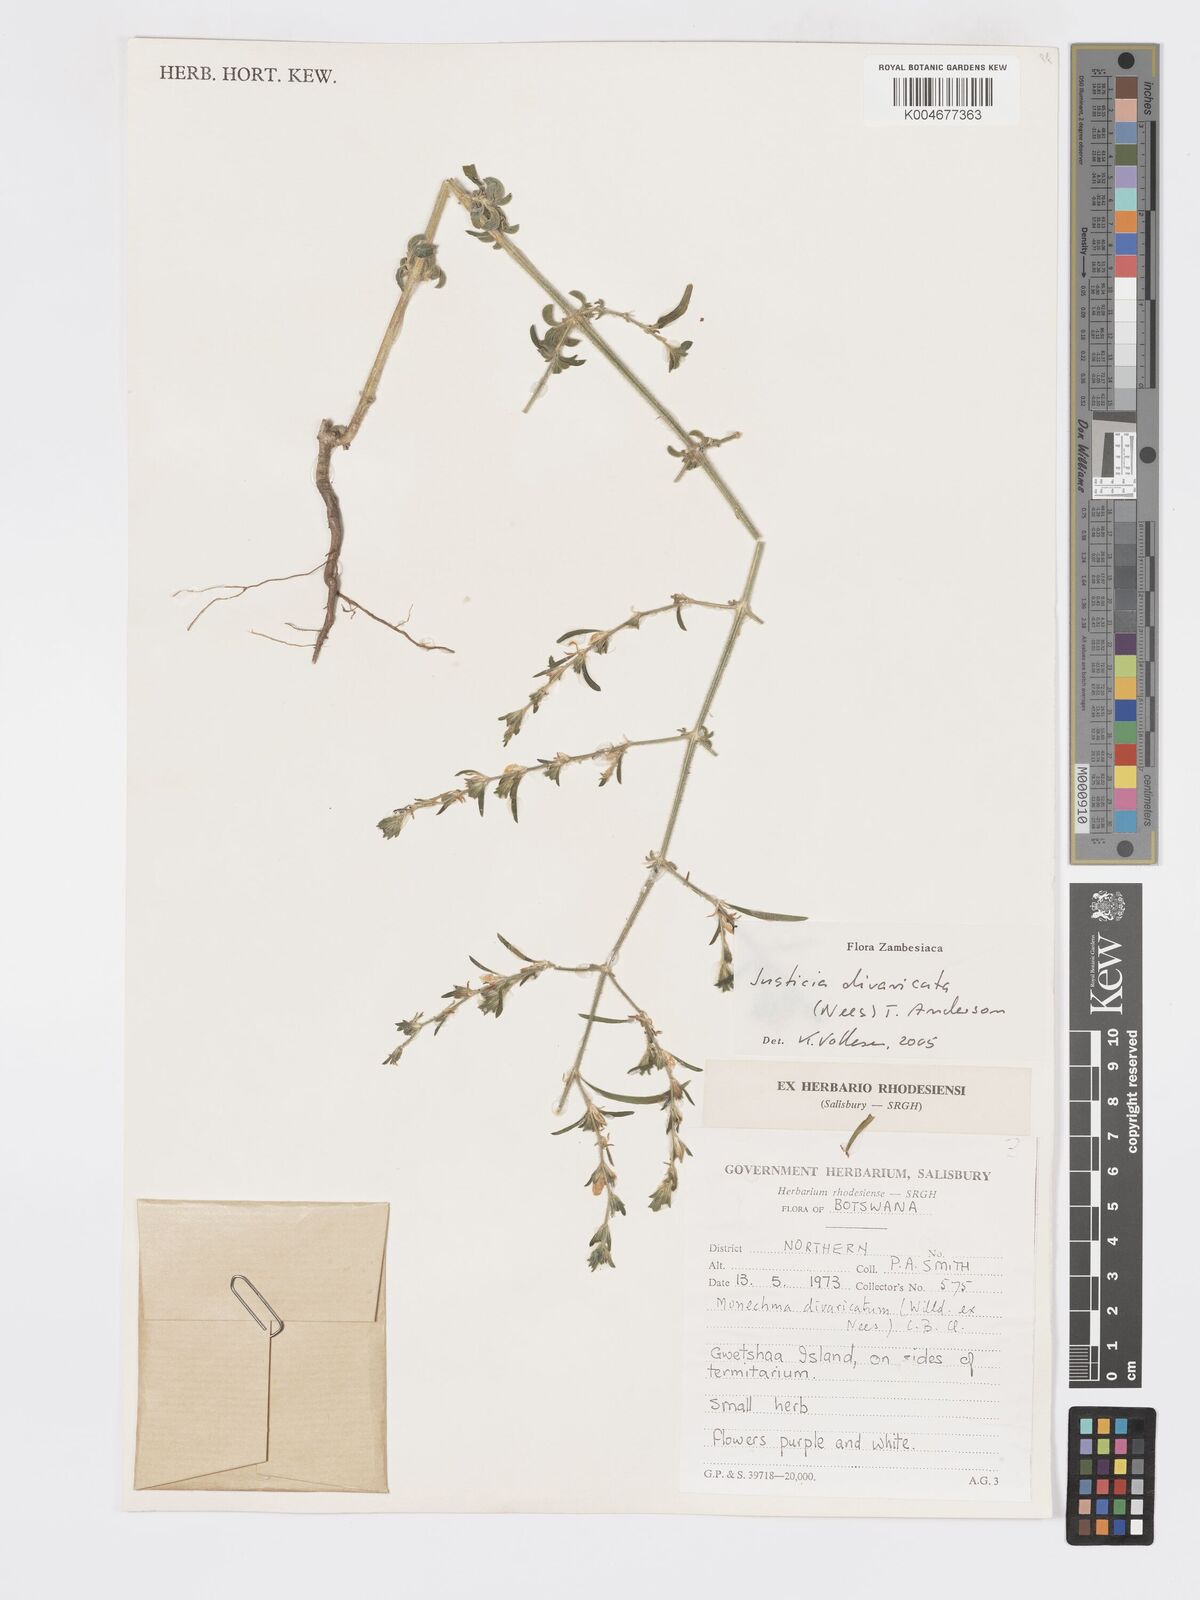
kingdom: Plantae
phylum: Tracheophyta
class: Magnoliopsida
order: Lamiales
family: Acanthaceae
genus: Pogonospermum
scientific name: Pogonospermum
